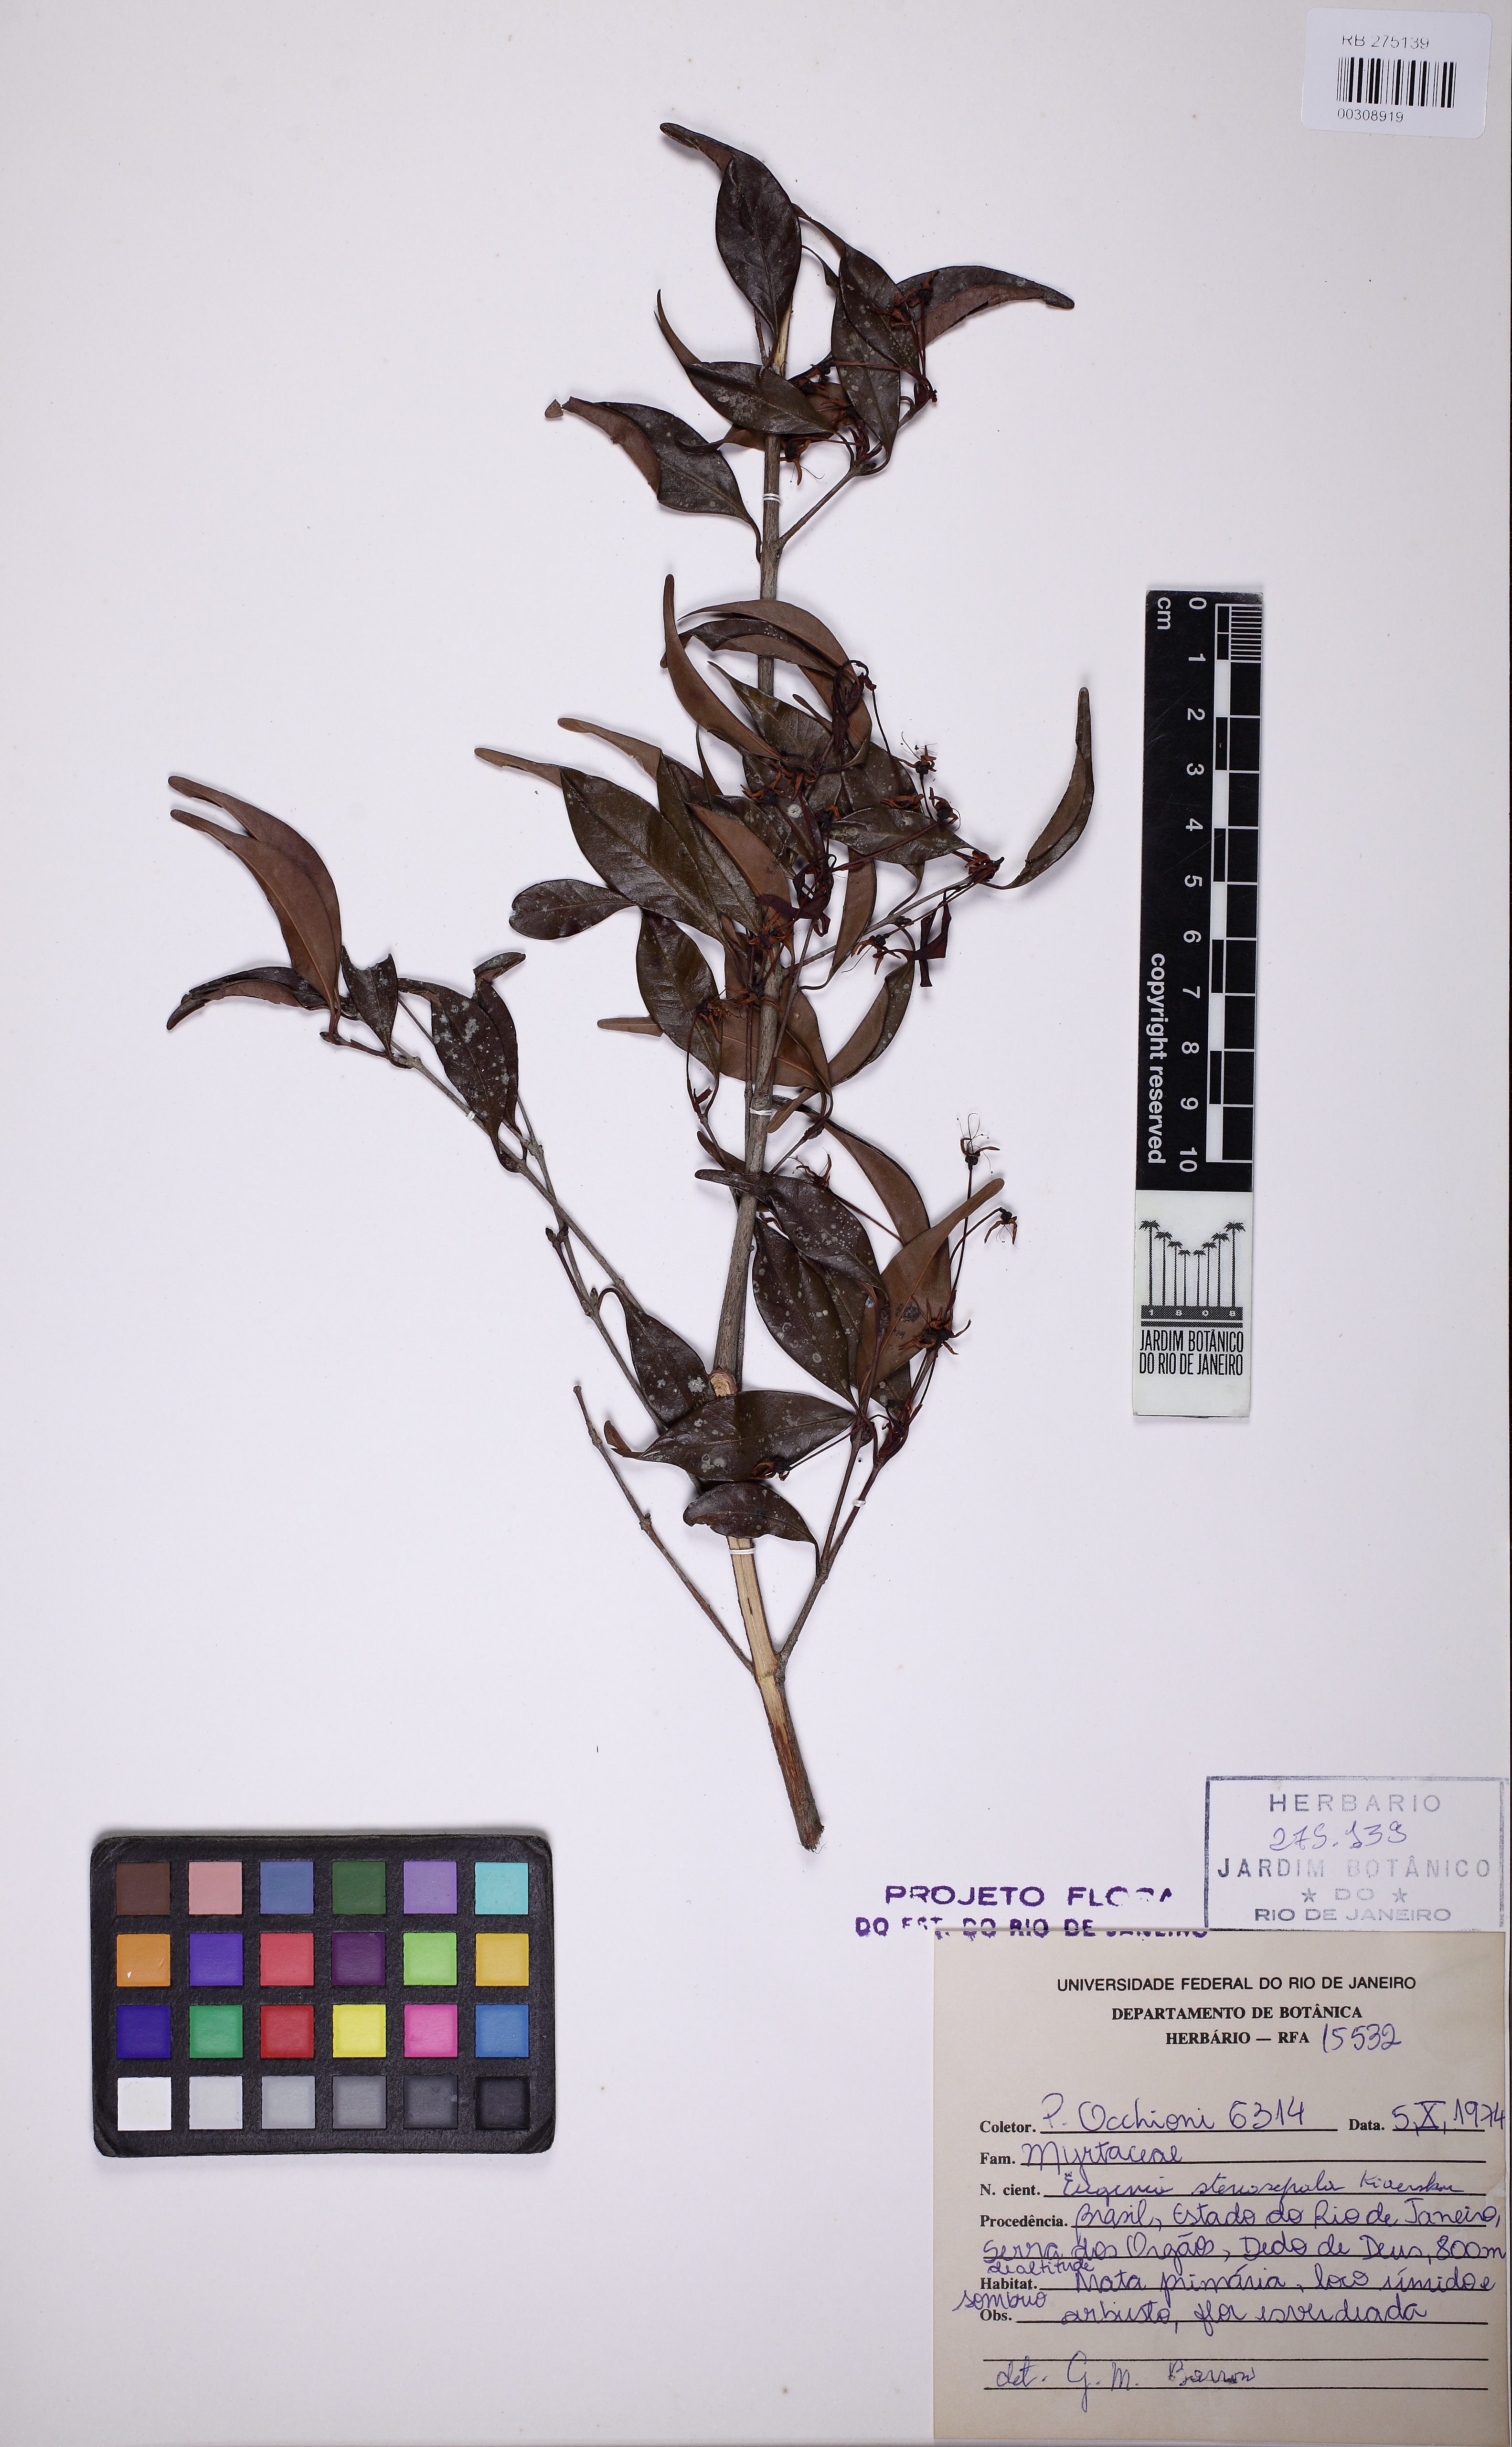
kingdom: Plantae
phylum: Tracheophyta
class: Magnoliopsida
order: Myrtales
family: Myrtaceae
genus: Eugenia
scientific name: Eugenia stenosepala
